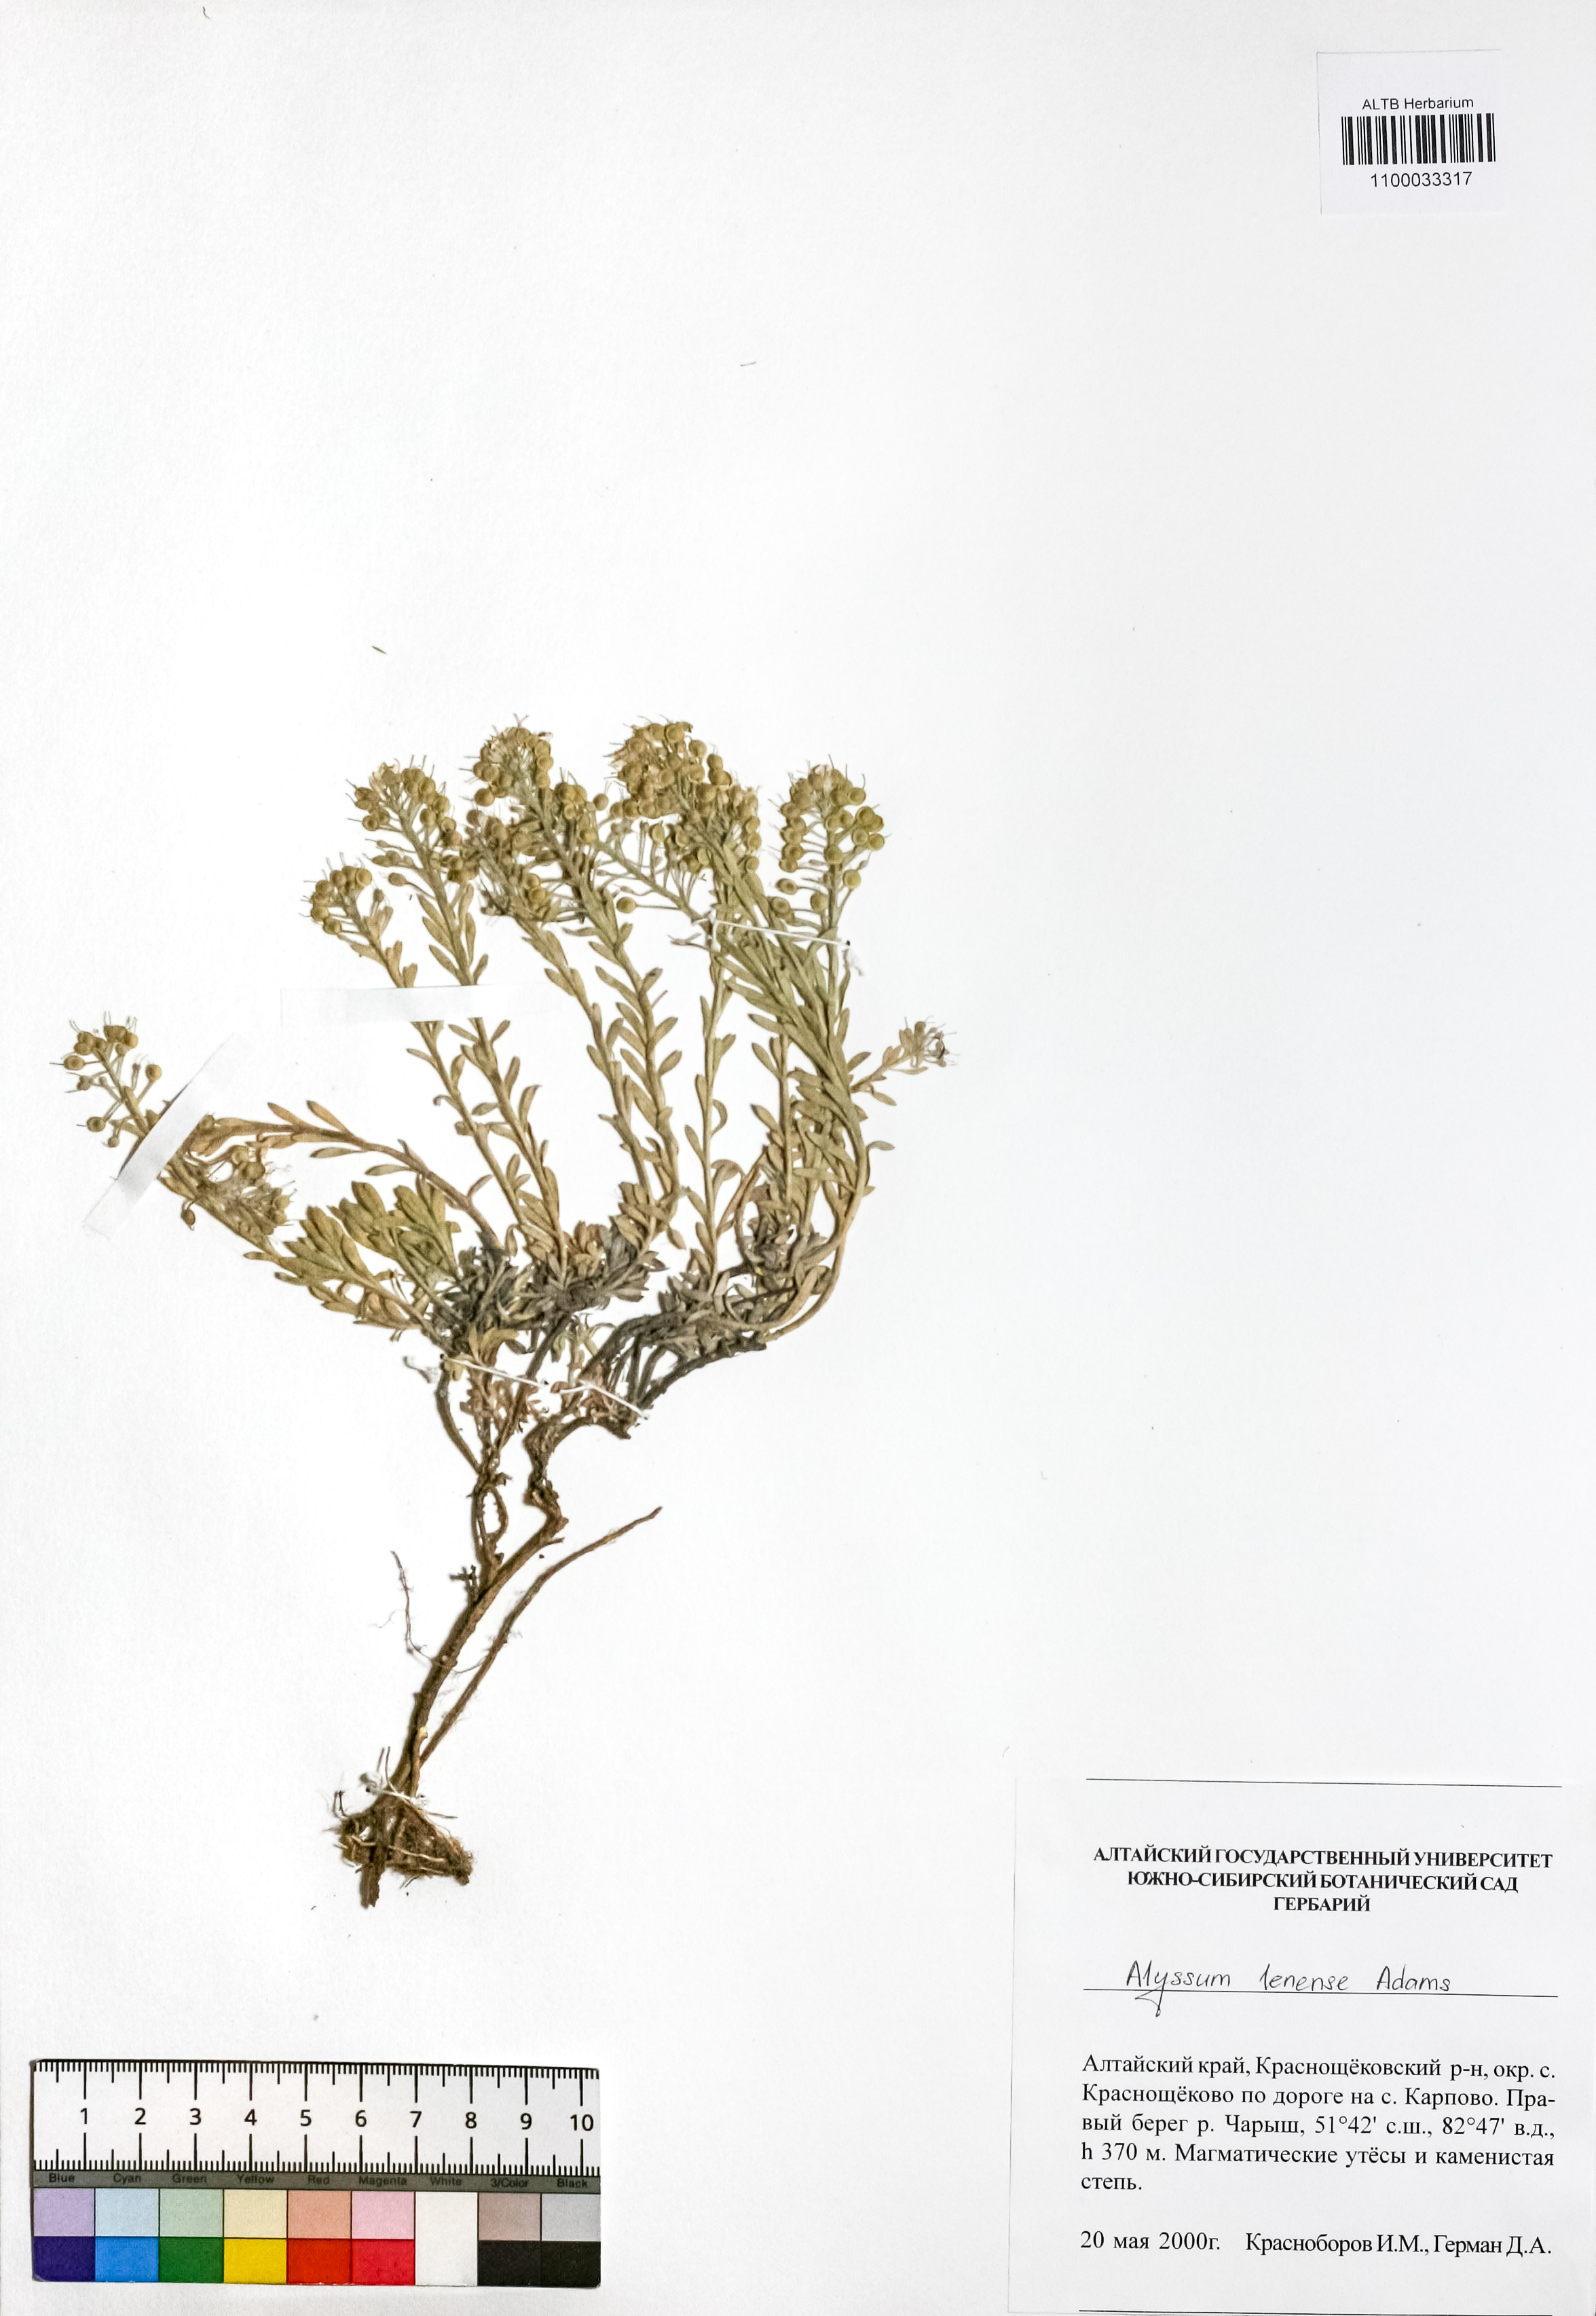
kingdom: Plantae
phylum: Tracheophyta
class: Magnoliopsida
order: Brassicales
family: Brassicaceae
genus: Alyssum
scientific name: Alyssum lenense
